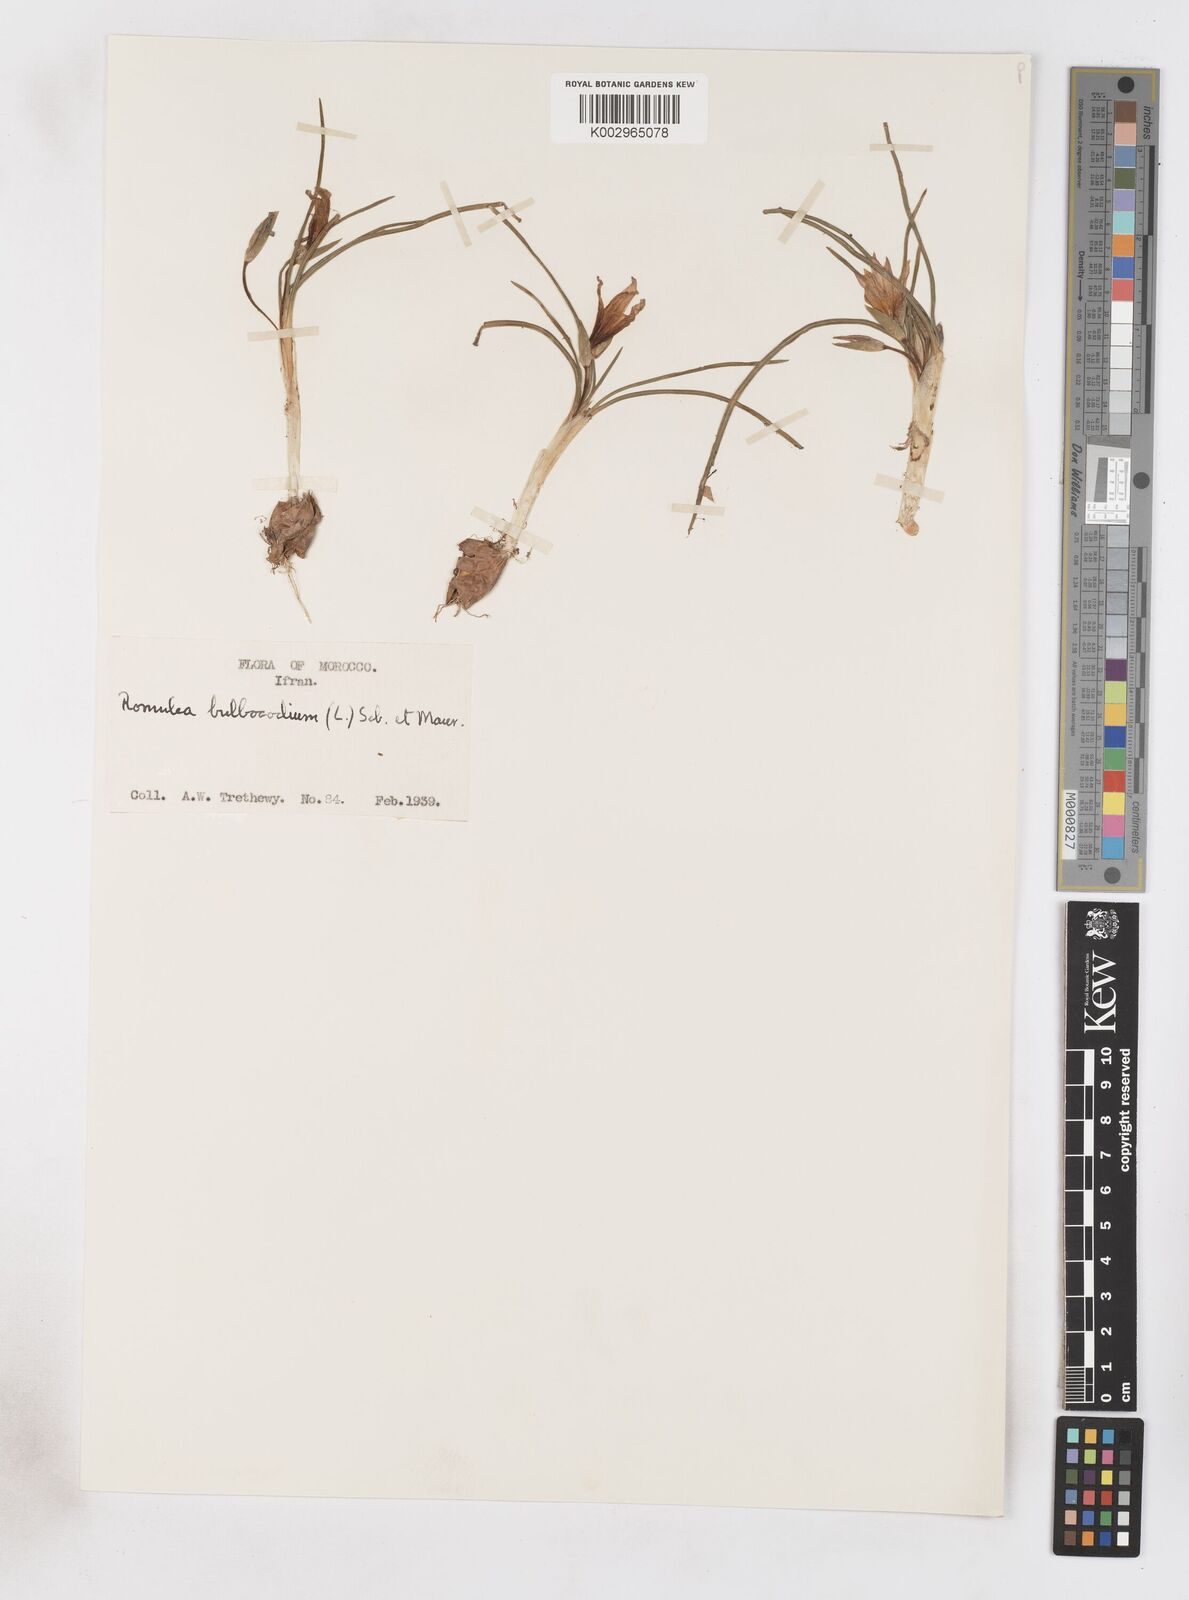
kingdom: Plantae
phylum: Tracheophyta
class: Liliopsida
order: Asparagales
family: Iridaceae
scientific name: Iridaceae
